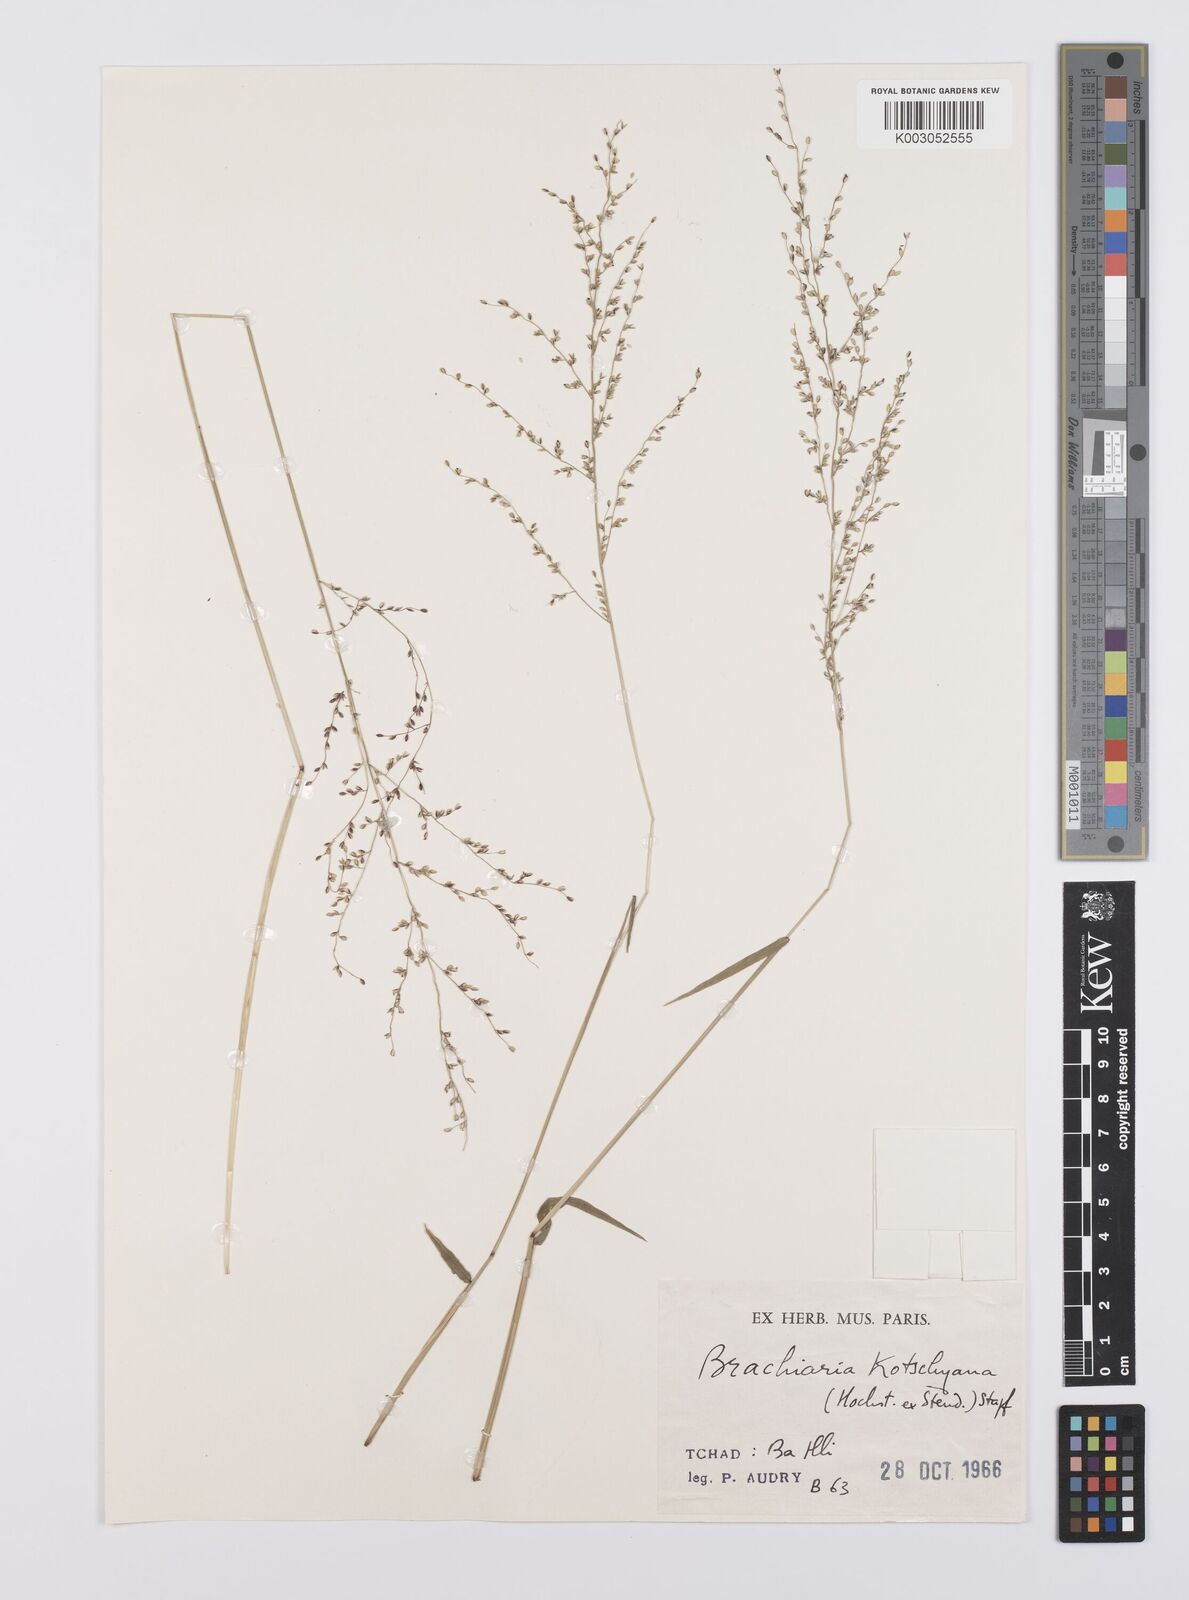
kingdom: Plantae
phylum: Tracheophyta
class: Liliopsida
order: Poales
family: Poaceae
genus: Urochloa
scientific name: Urochloa comata
